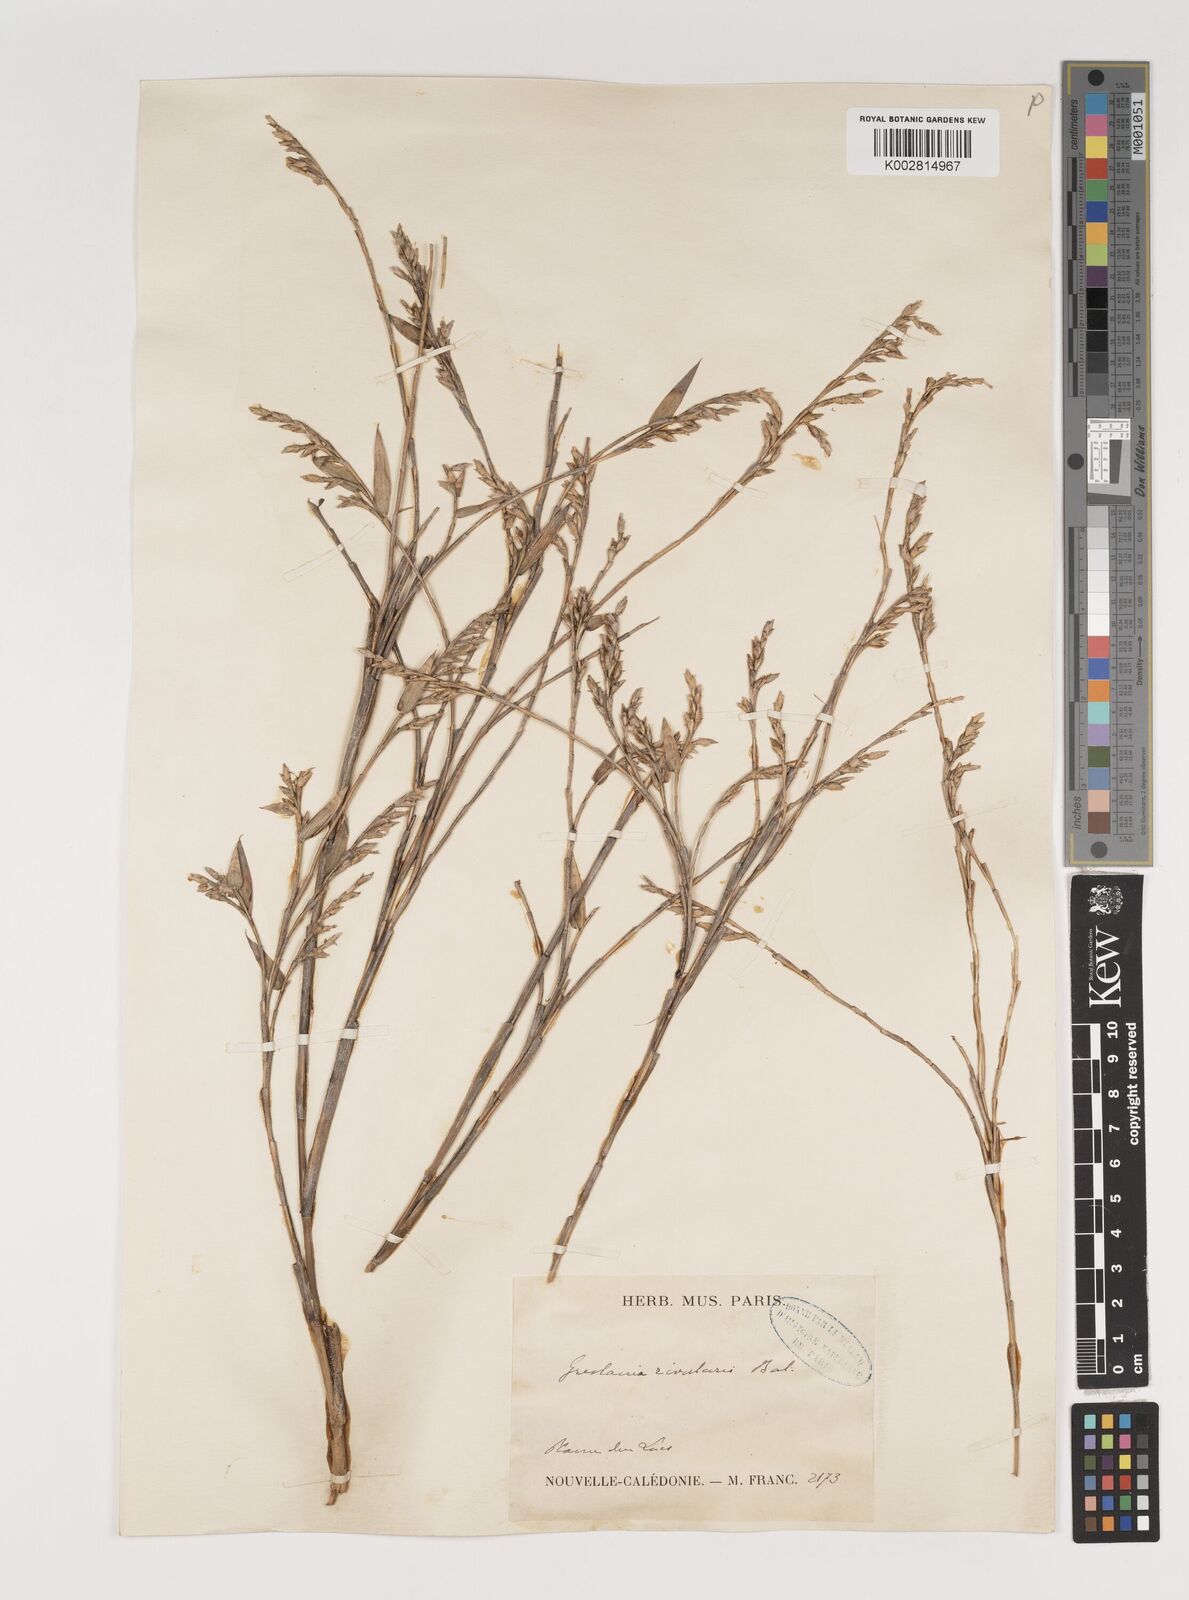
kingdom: Plantae
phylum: Tracheophyta
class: Liliopsida
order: Poales
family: Poaceae
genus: Greslania
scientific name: Greslania rivularis
